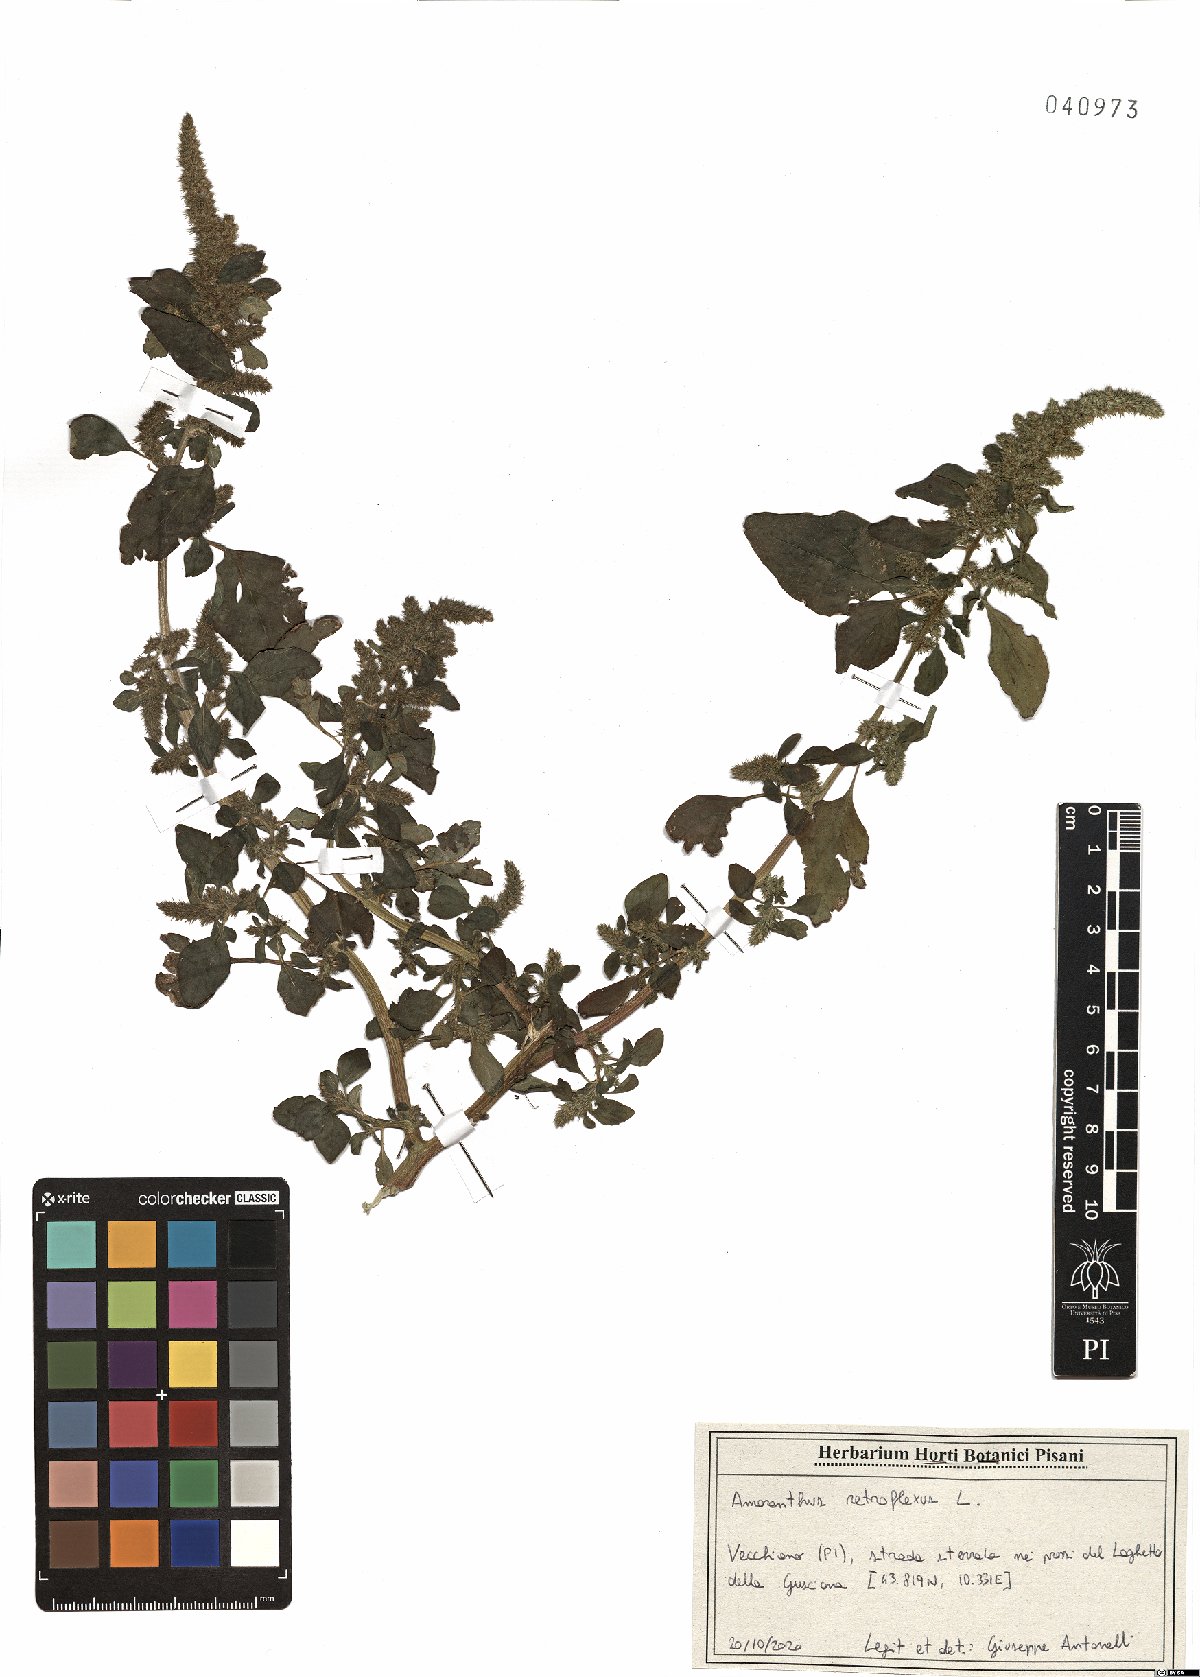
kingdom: Plantae
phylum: Tracheophyta
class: Magnoliopsida
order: Caryophyllales
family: Amaranthaceae
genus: Amaranthus
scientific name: Amaranthus retroflexus
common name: Redroot amaranth
